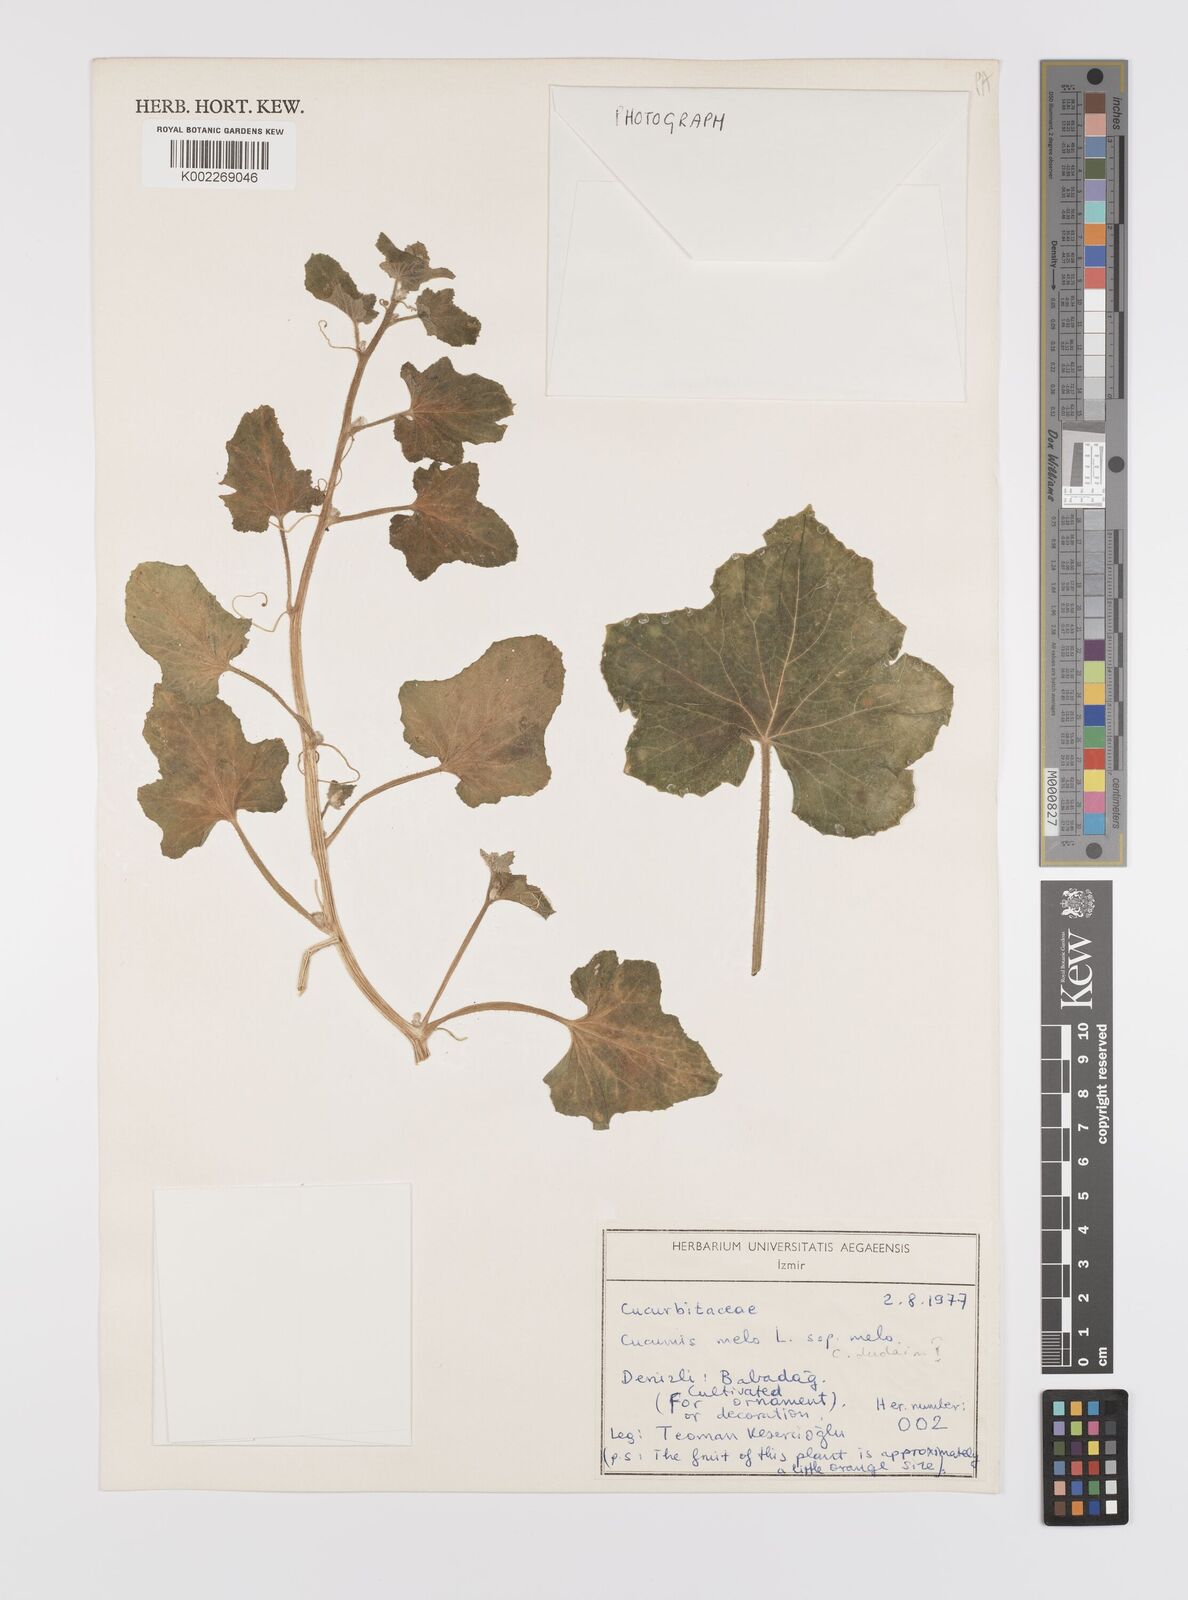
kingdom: Plantae
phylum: Tracheophyta
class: Magnoliopsida
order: Cucurbitales
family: Cucurbitaceae
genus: Cucumis
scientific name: Cucumis melo
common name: Melon
